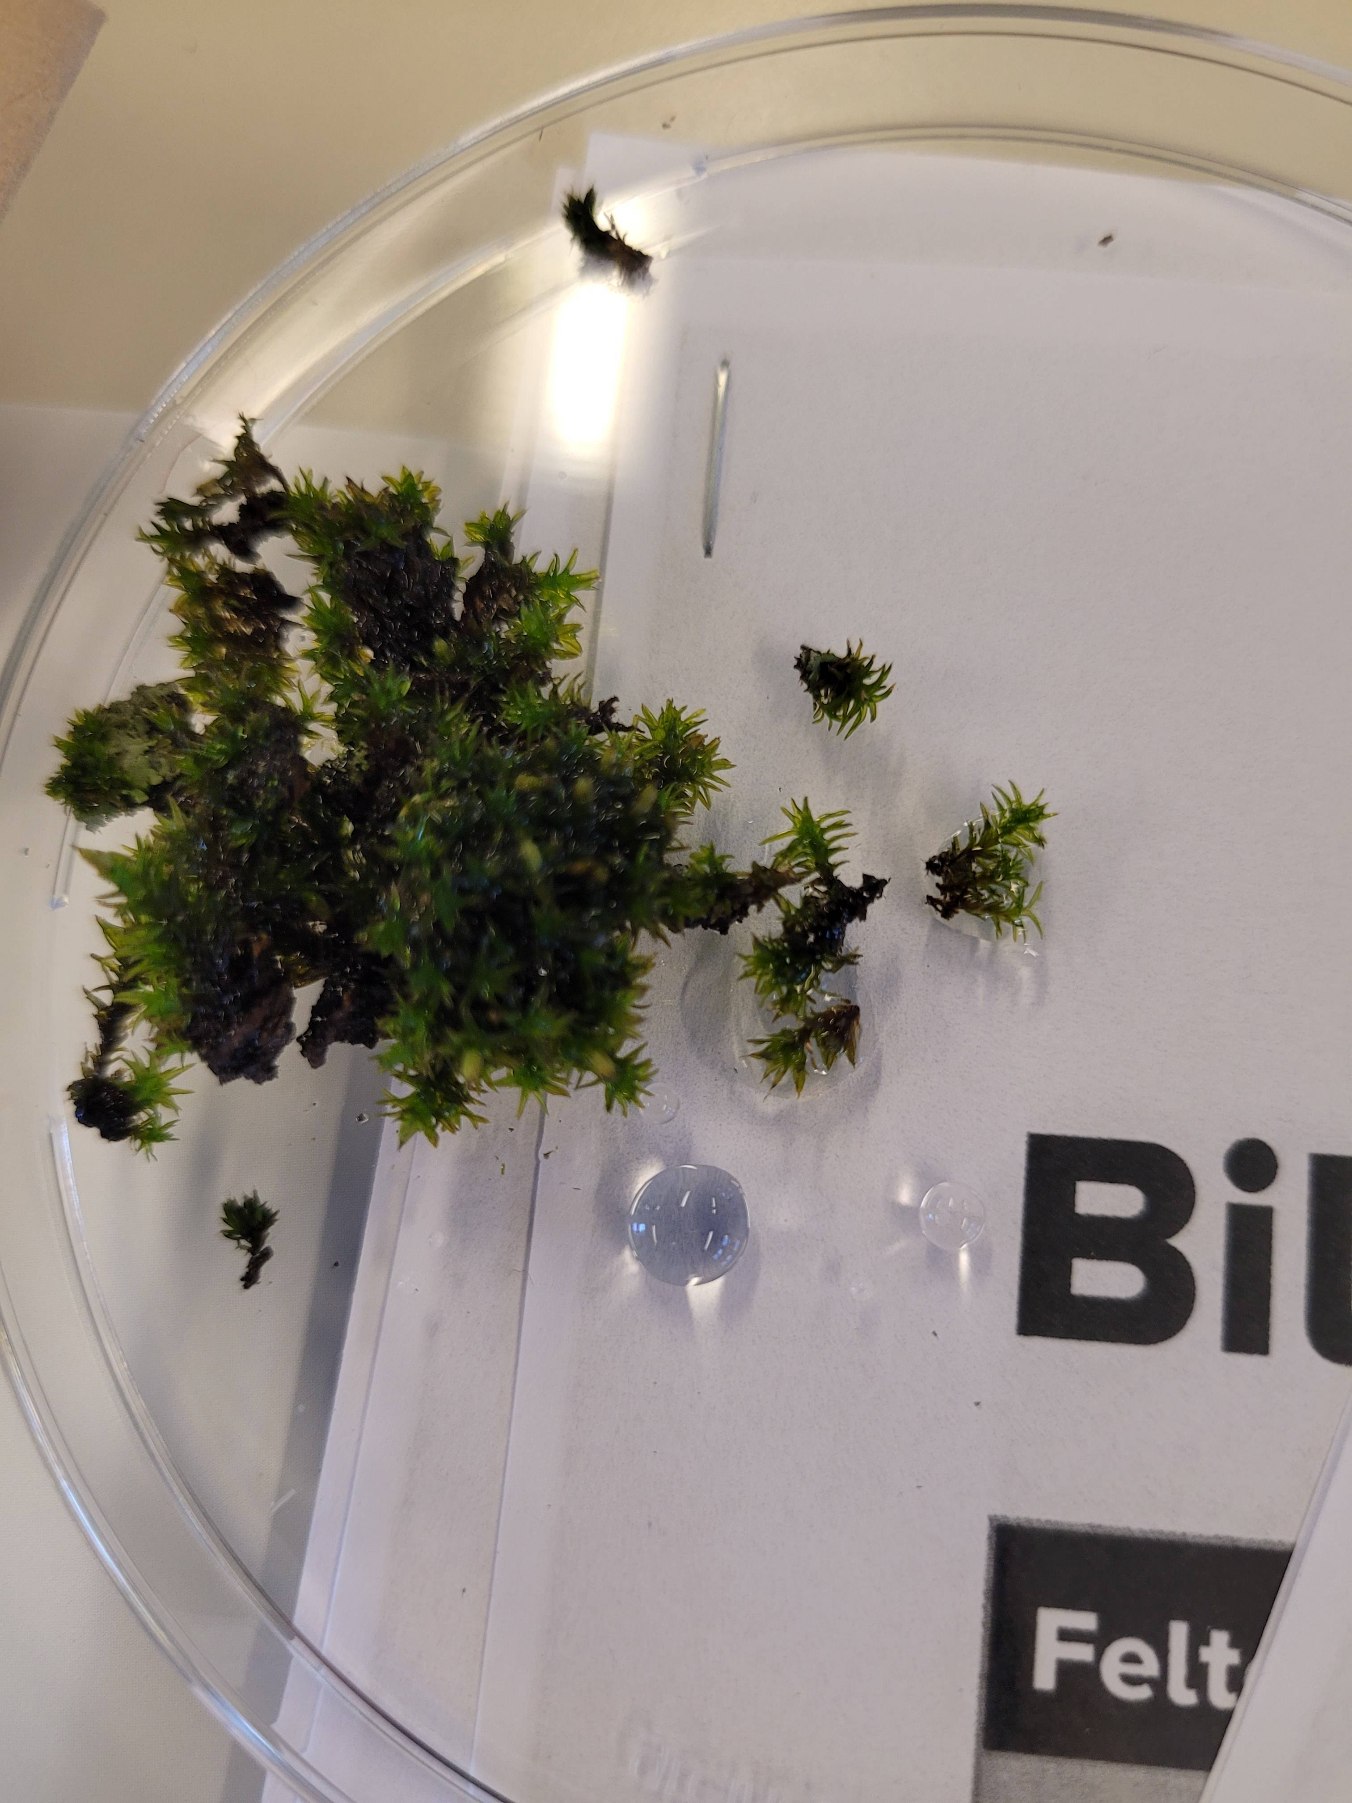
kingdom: Plantae
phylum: Bryophyta
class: Bryopsida
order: Orthotrichales
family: Orthotrichaceae
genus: Lewinskya
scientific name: Lewinskya affinis
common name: Almindelig furehætte
